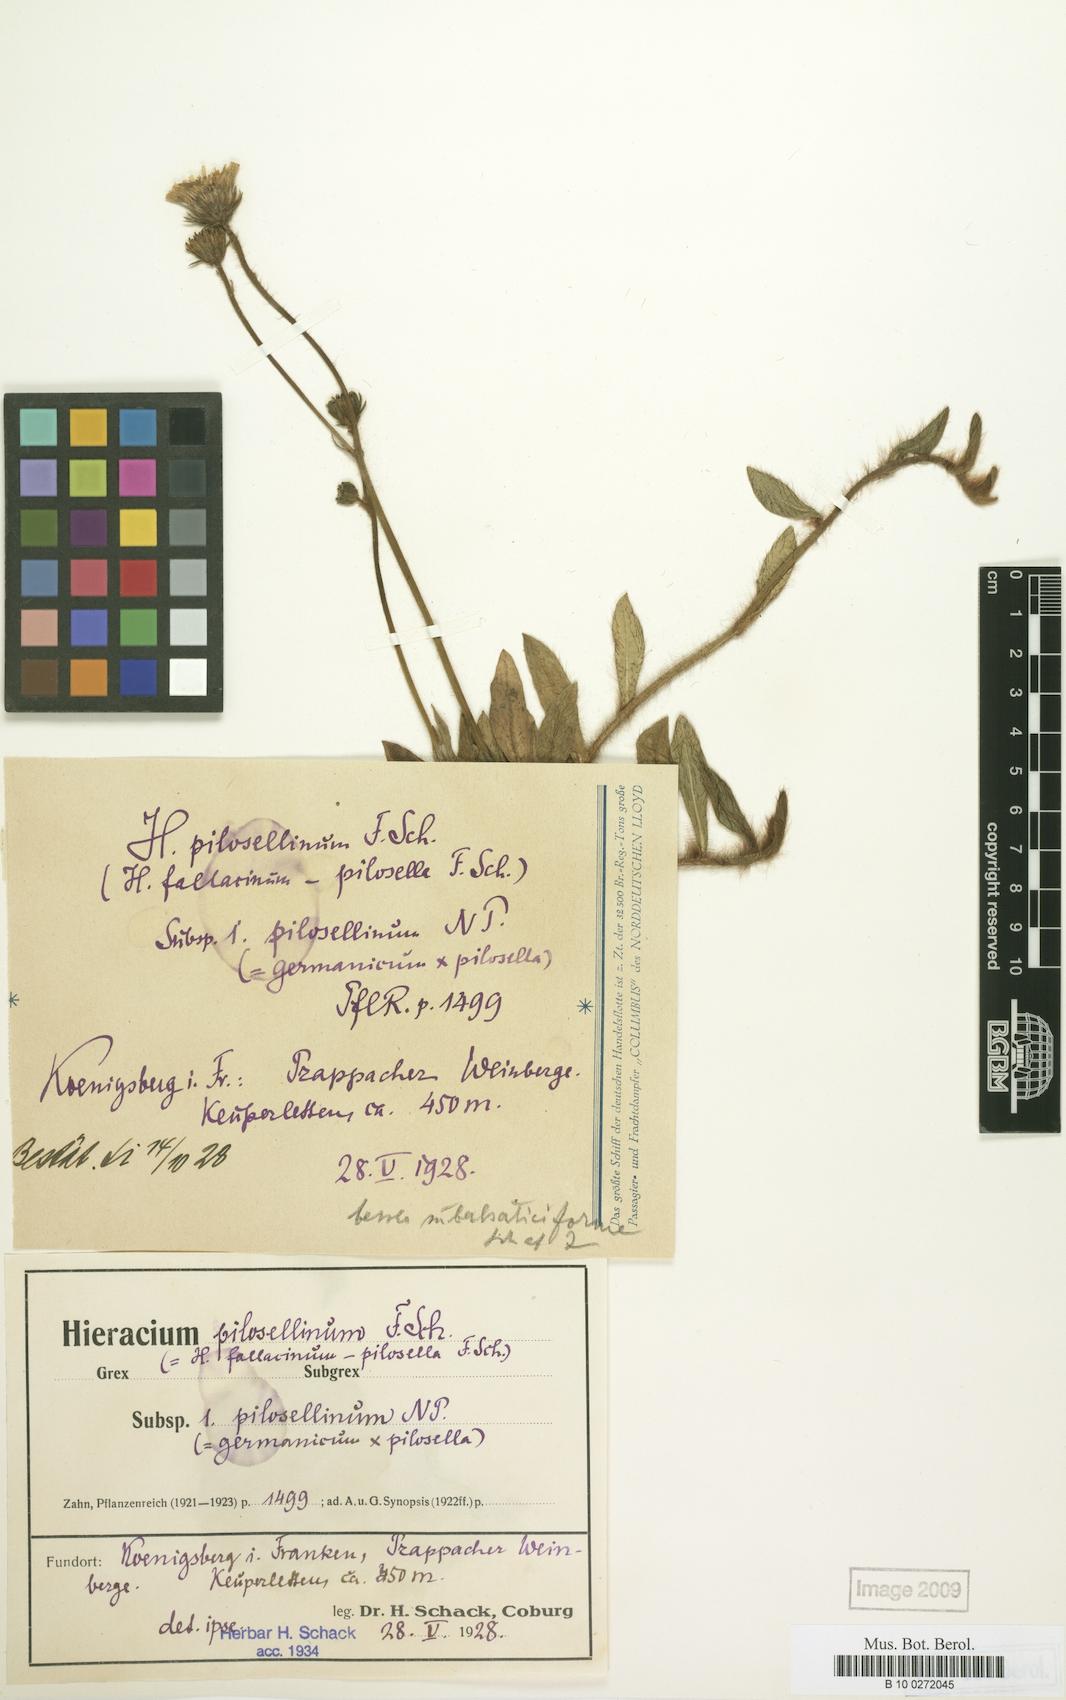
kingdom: Plantae
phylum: Tracheophyta
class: Magnoliopsida
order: Asterales
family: Asteraceae
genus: Pilosella
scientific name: Pilosella pilosellina
